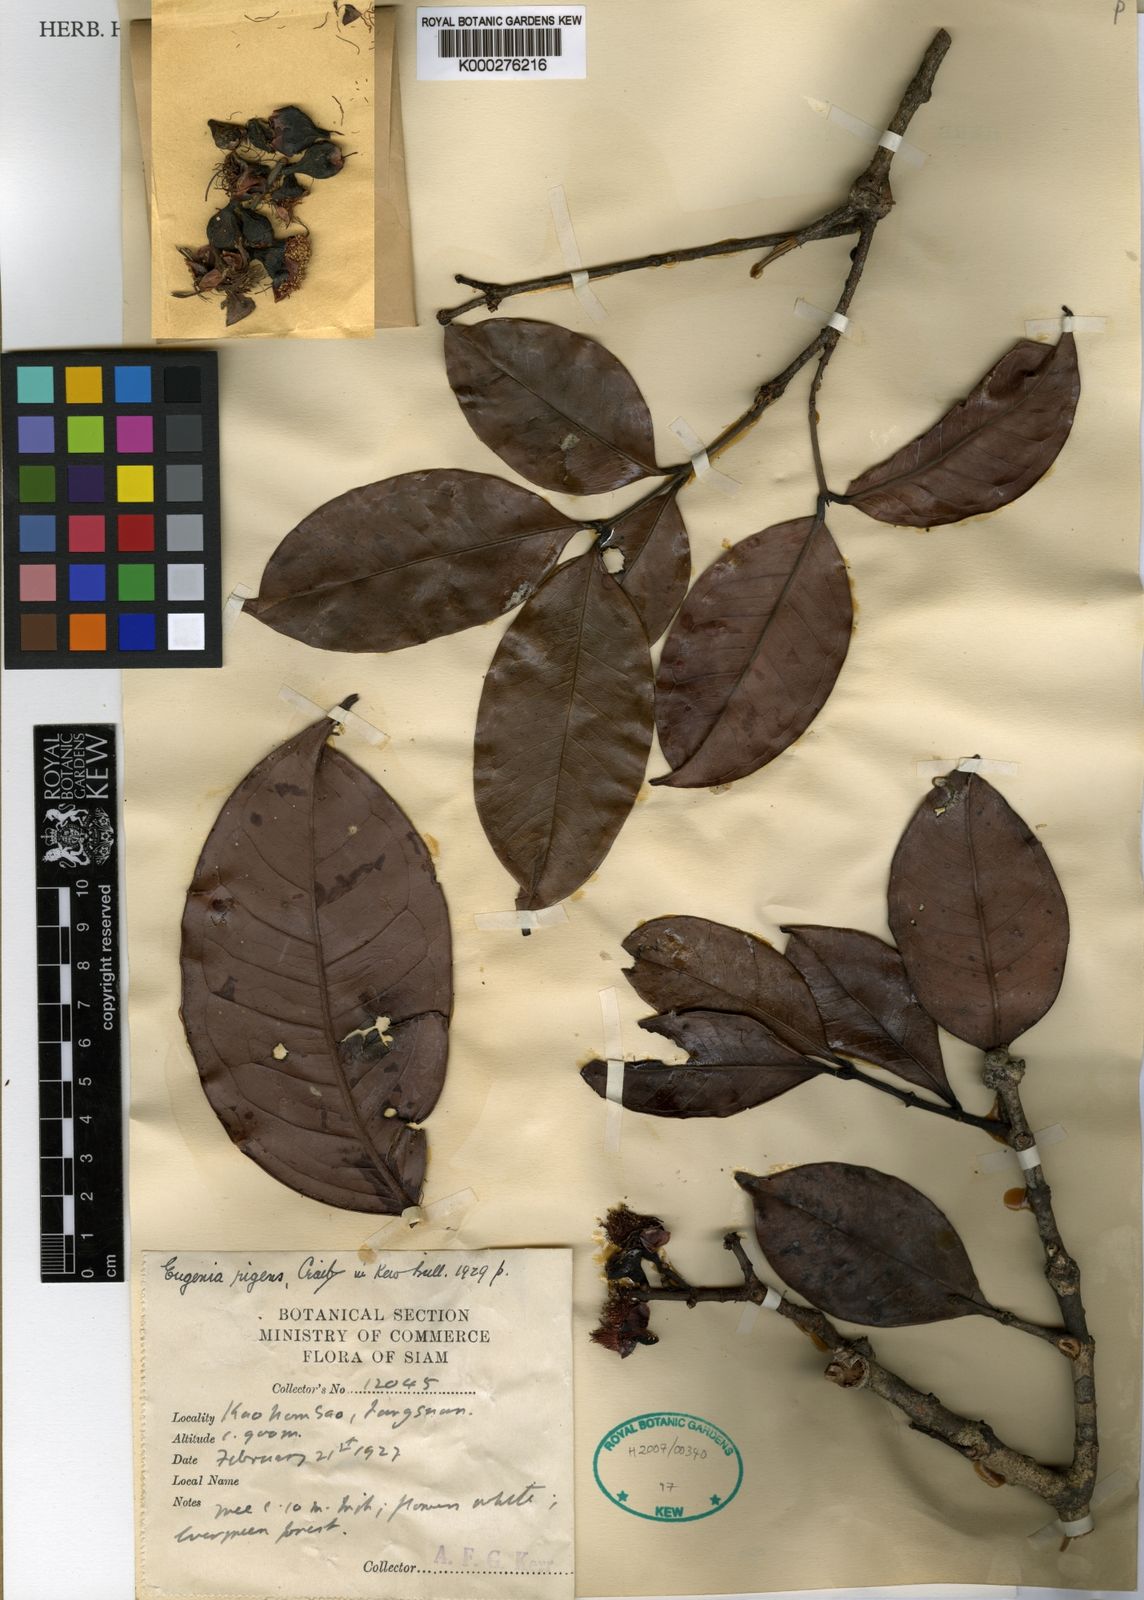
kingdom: Plantae
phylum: Tracheophyta
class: Magnoliopsida
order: Myrtales
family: Myrtaceae
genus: Syzygium
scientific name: Syzygium rigens
